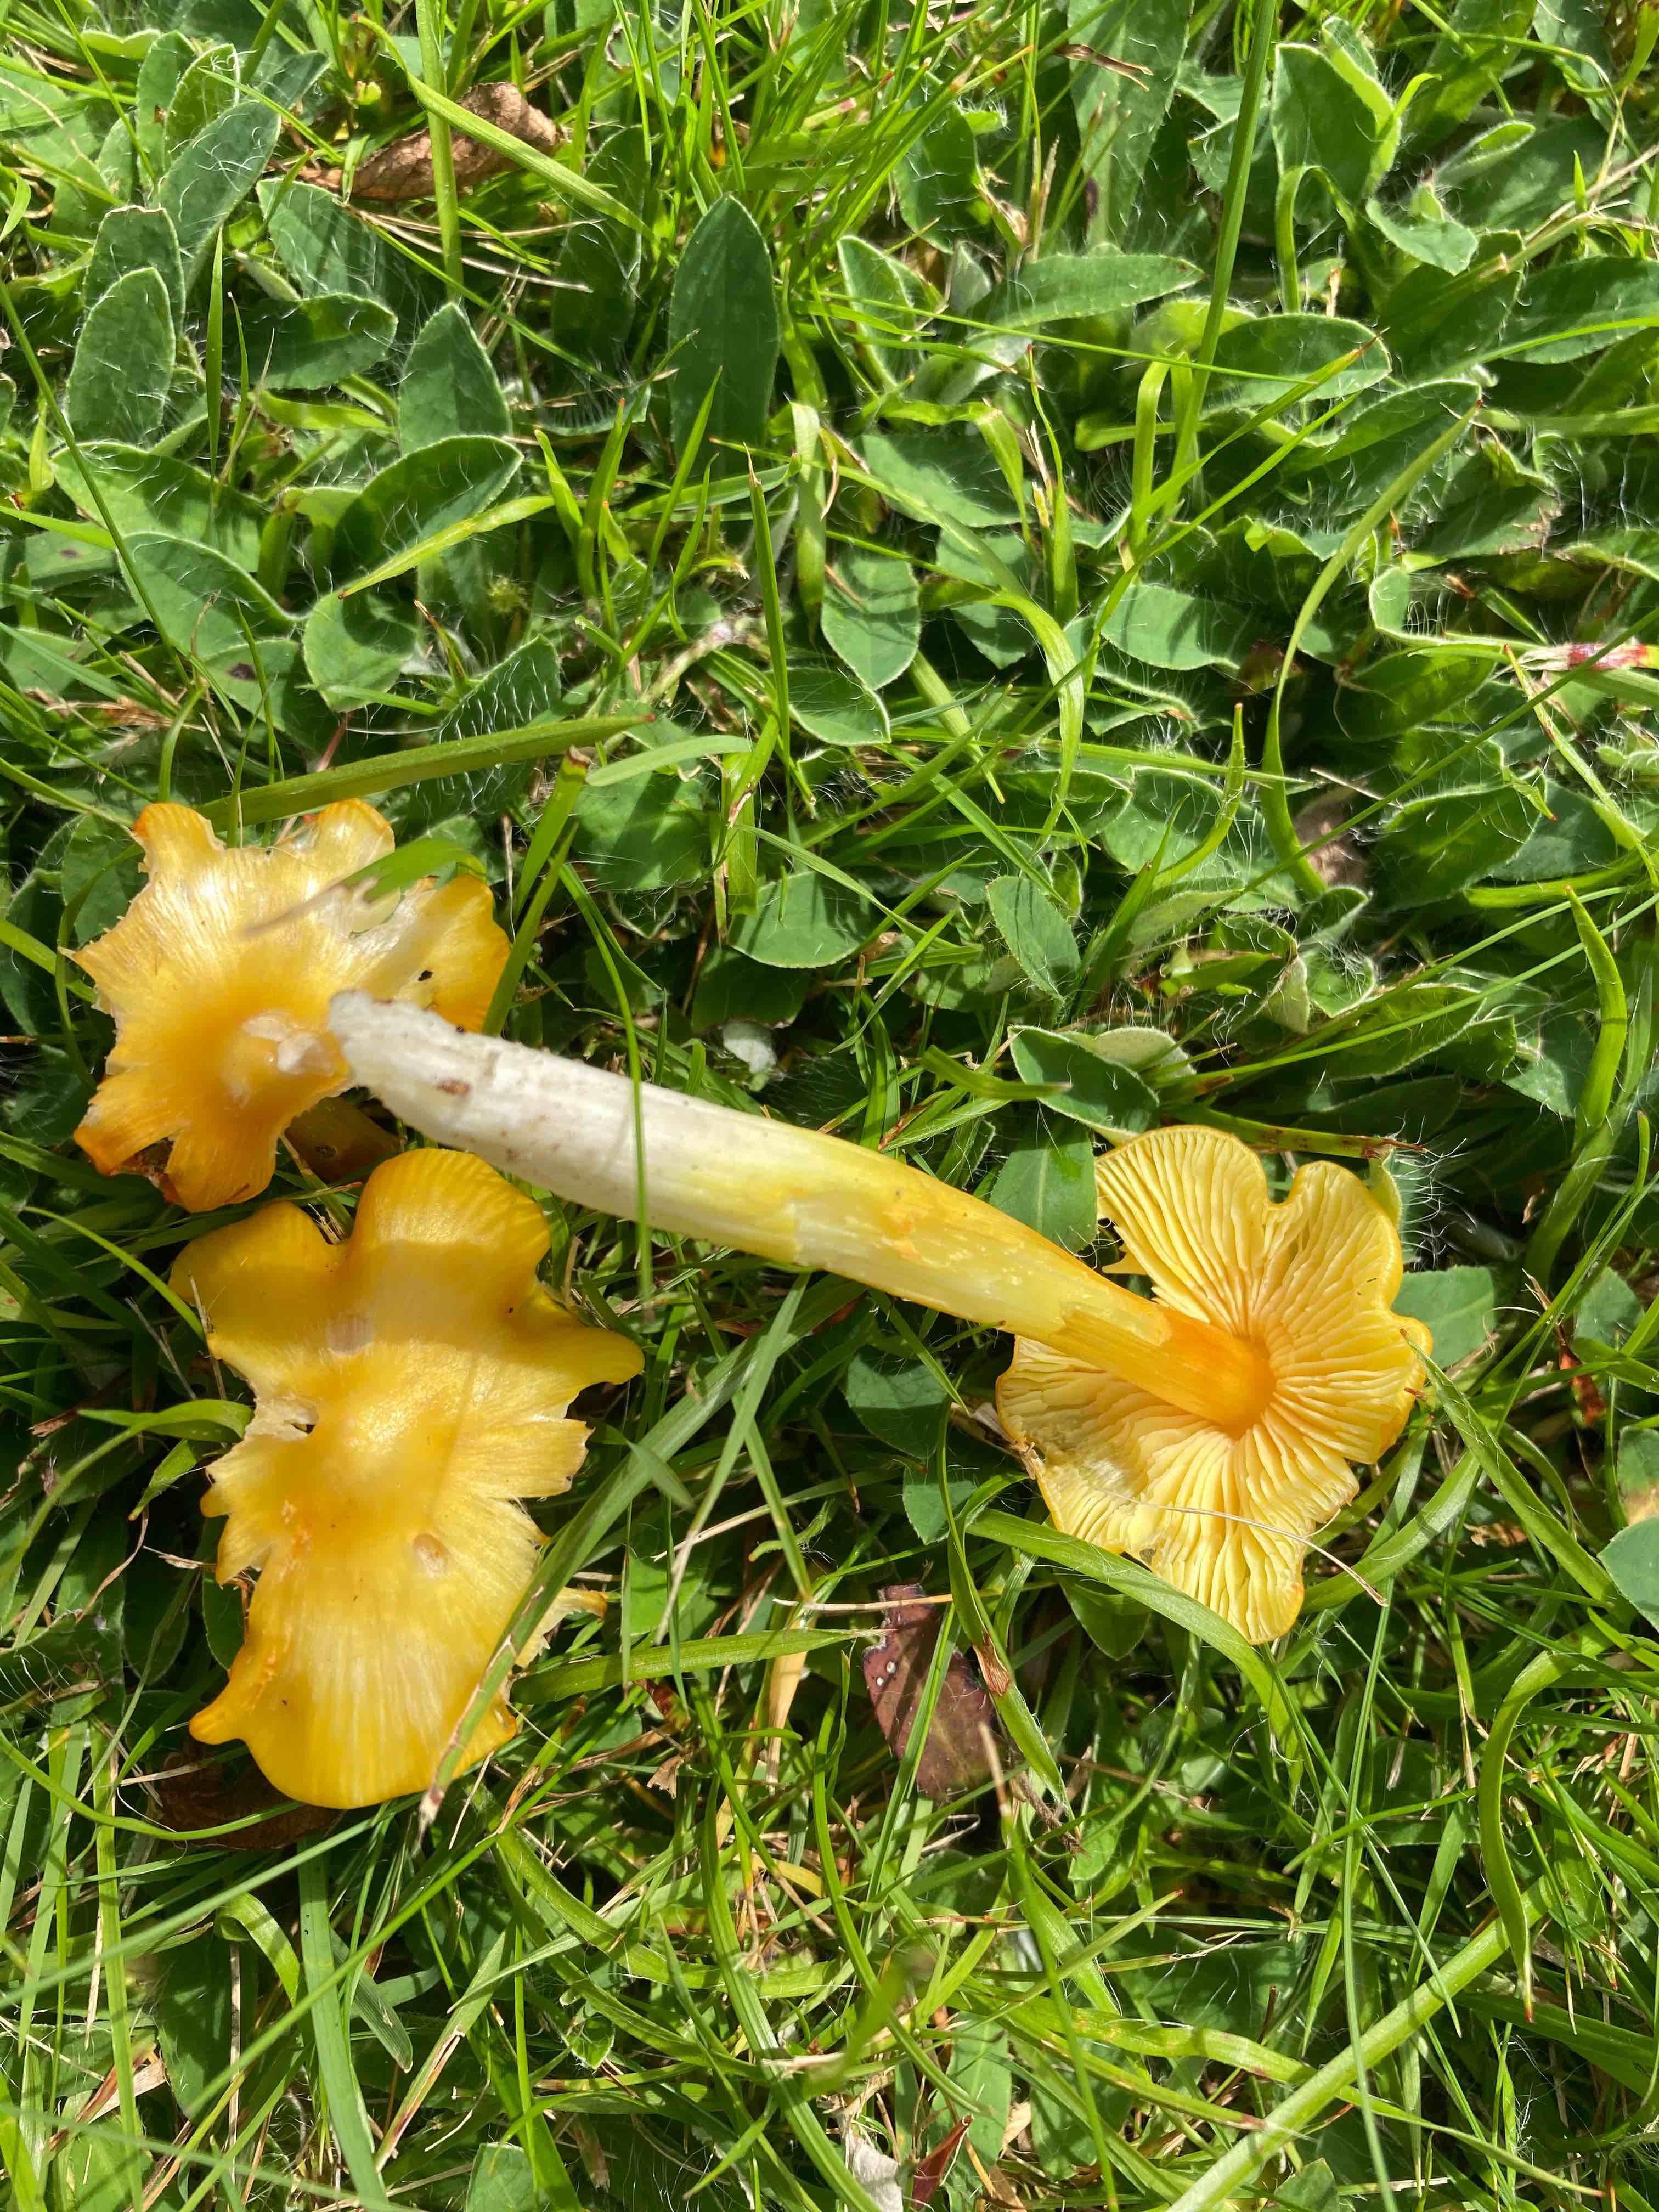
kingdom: Fungi
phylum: Basidiomycota
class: Agaricomycetes
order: Agaricales
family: Hygrophoraceae
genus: Hygrocybe
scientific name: Hygrocybe
